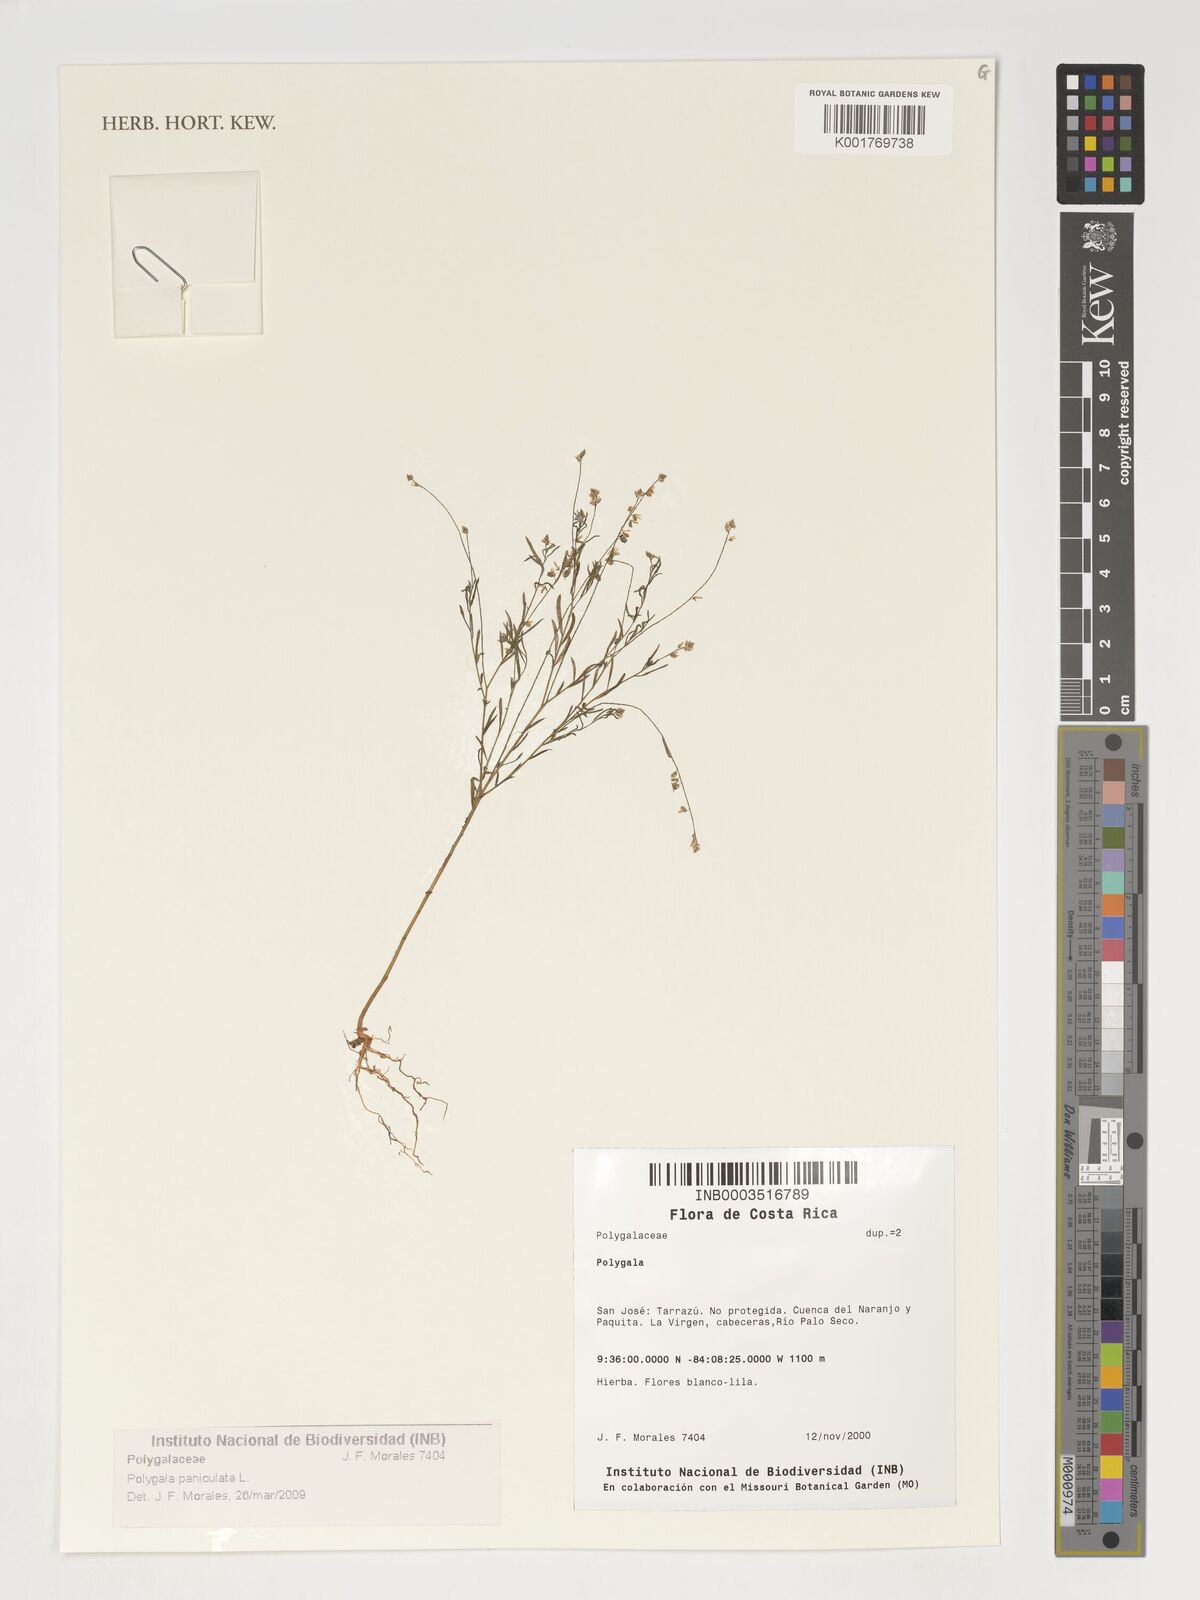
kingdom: Plantae
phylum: Tracheophyta
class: Magnoliopsida
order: Fabales
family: Polygalaceae
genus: Polygala
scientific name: Polygala paniculata
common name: Orosne
